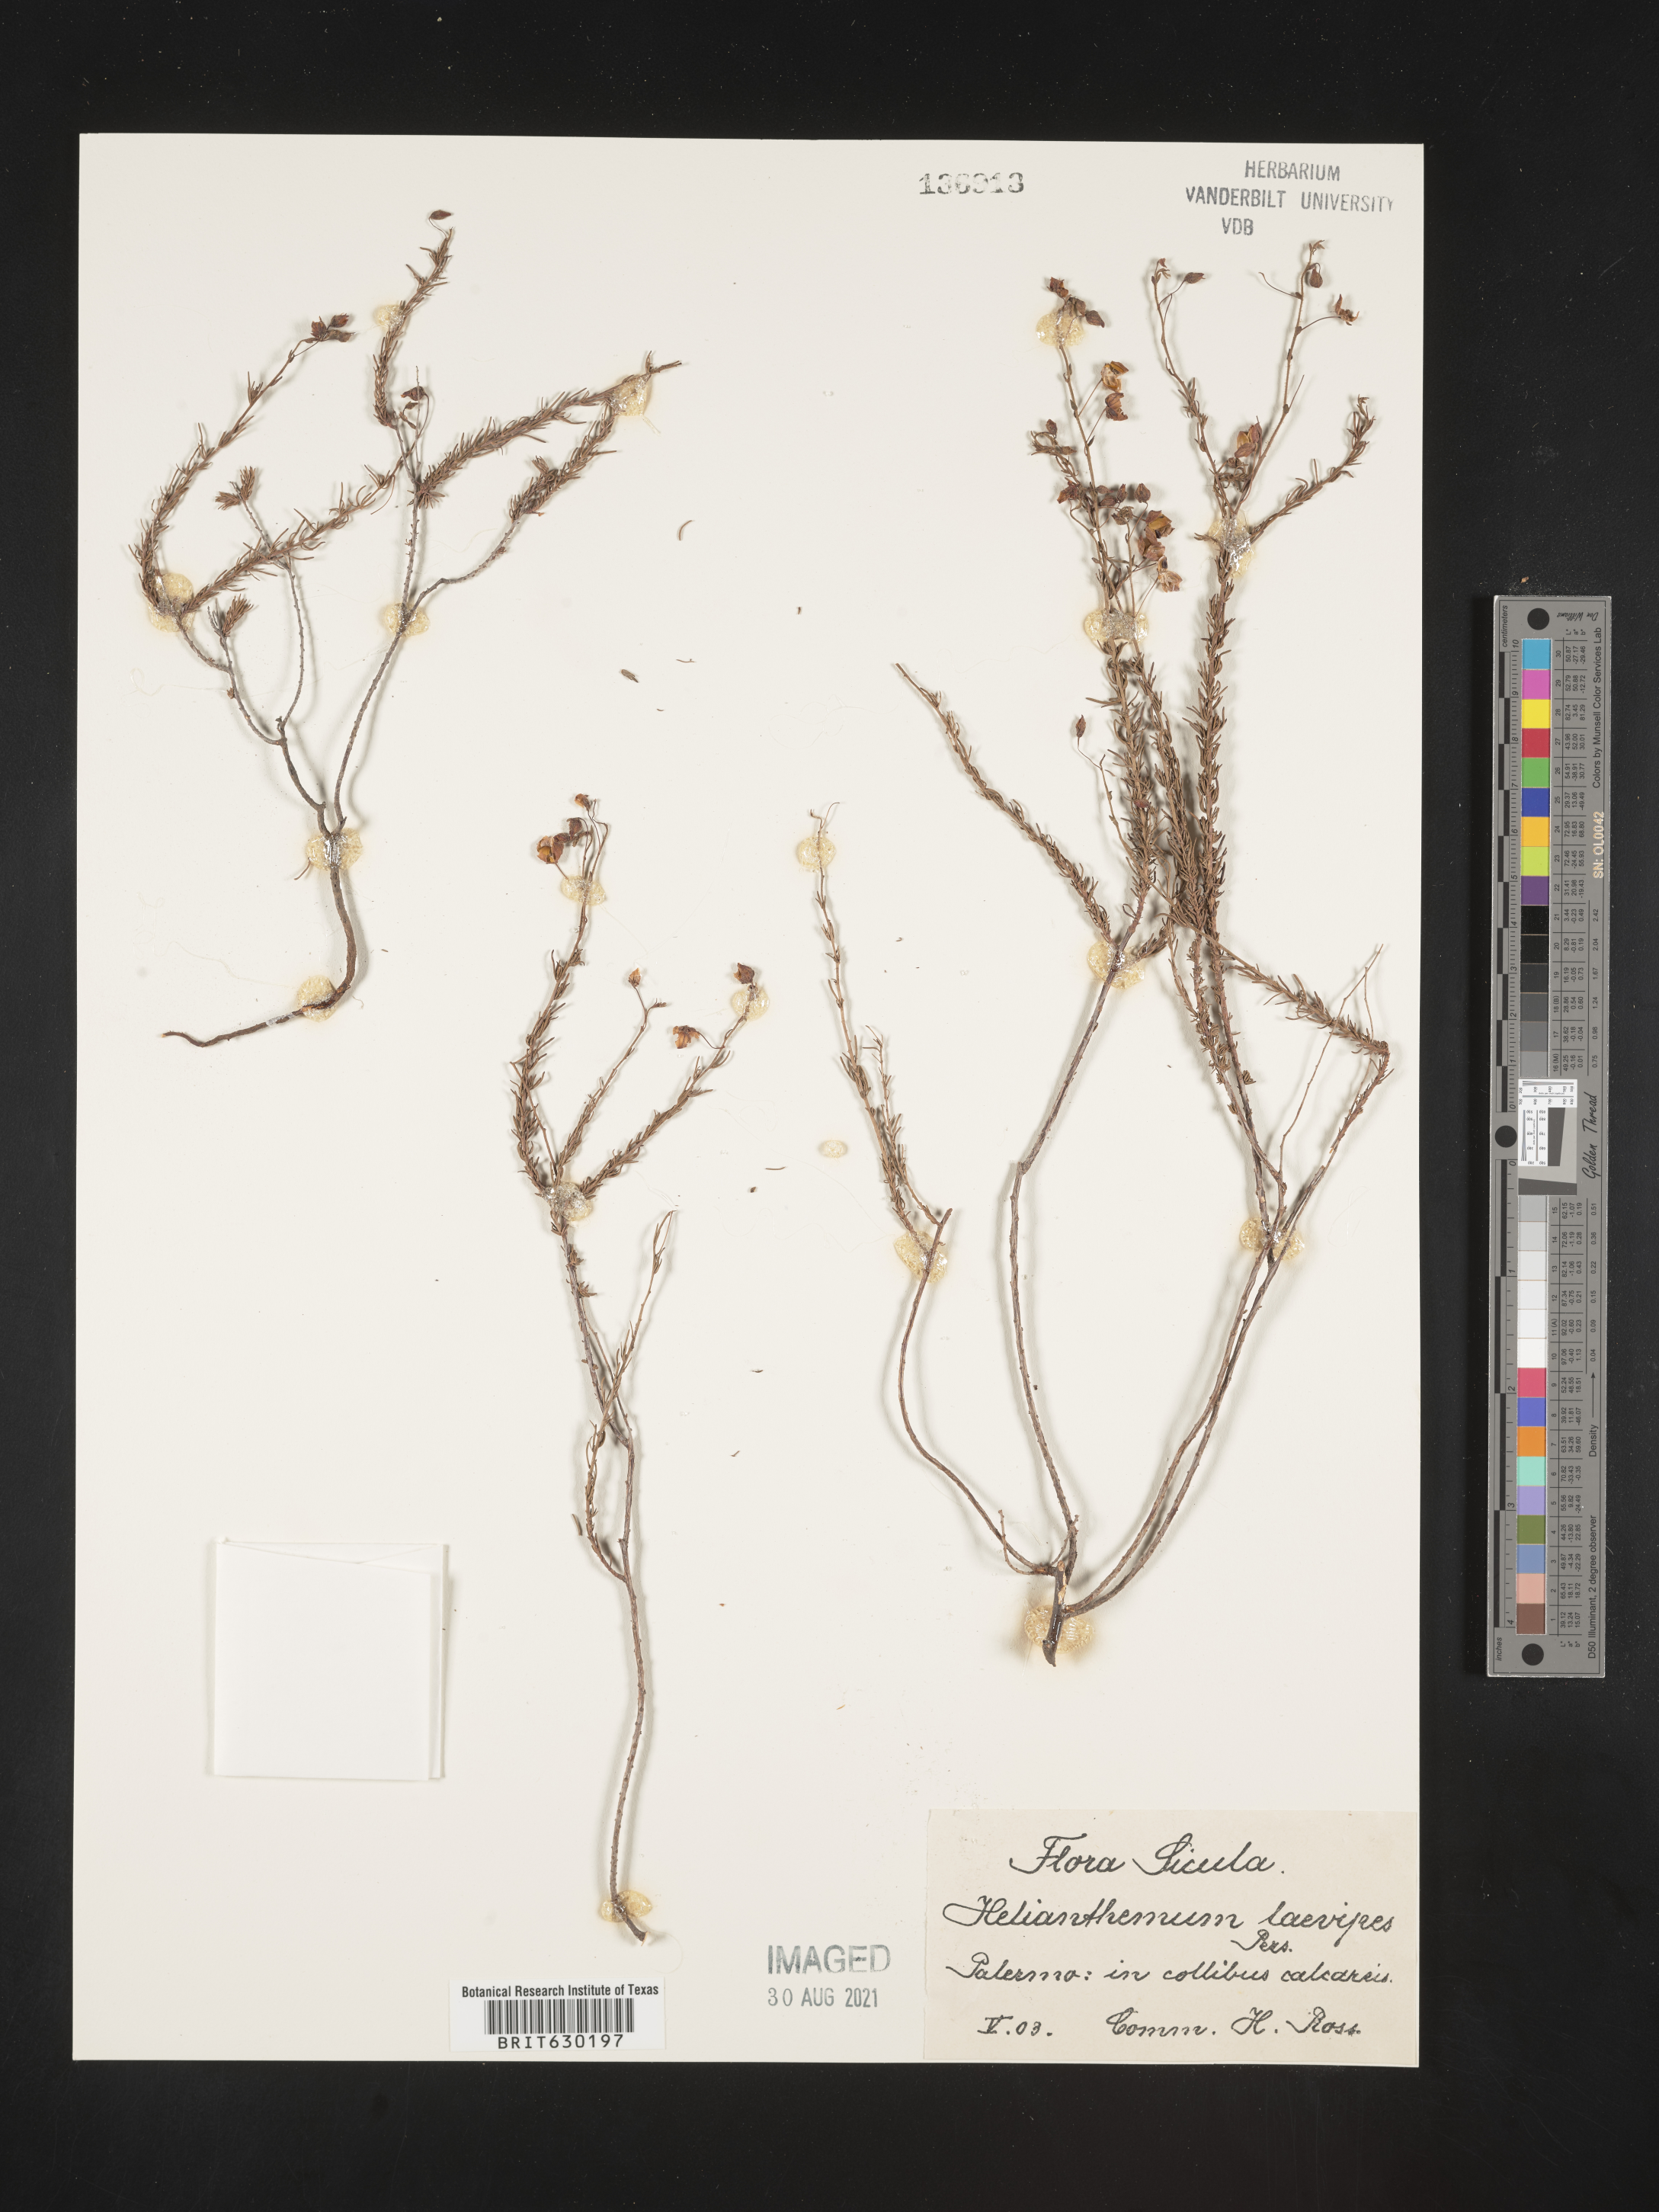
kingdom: Plantae
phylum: Tracheophyta
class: Magnoliopsida
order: Malvales
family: Cistaceae
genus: Helianthemum
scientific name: Helianthemum
